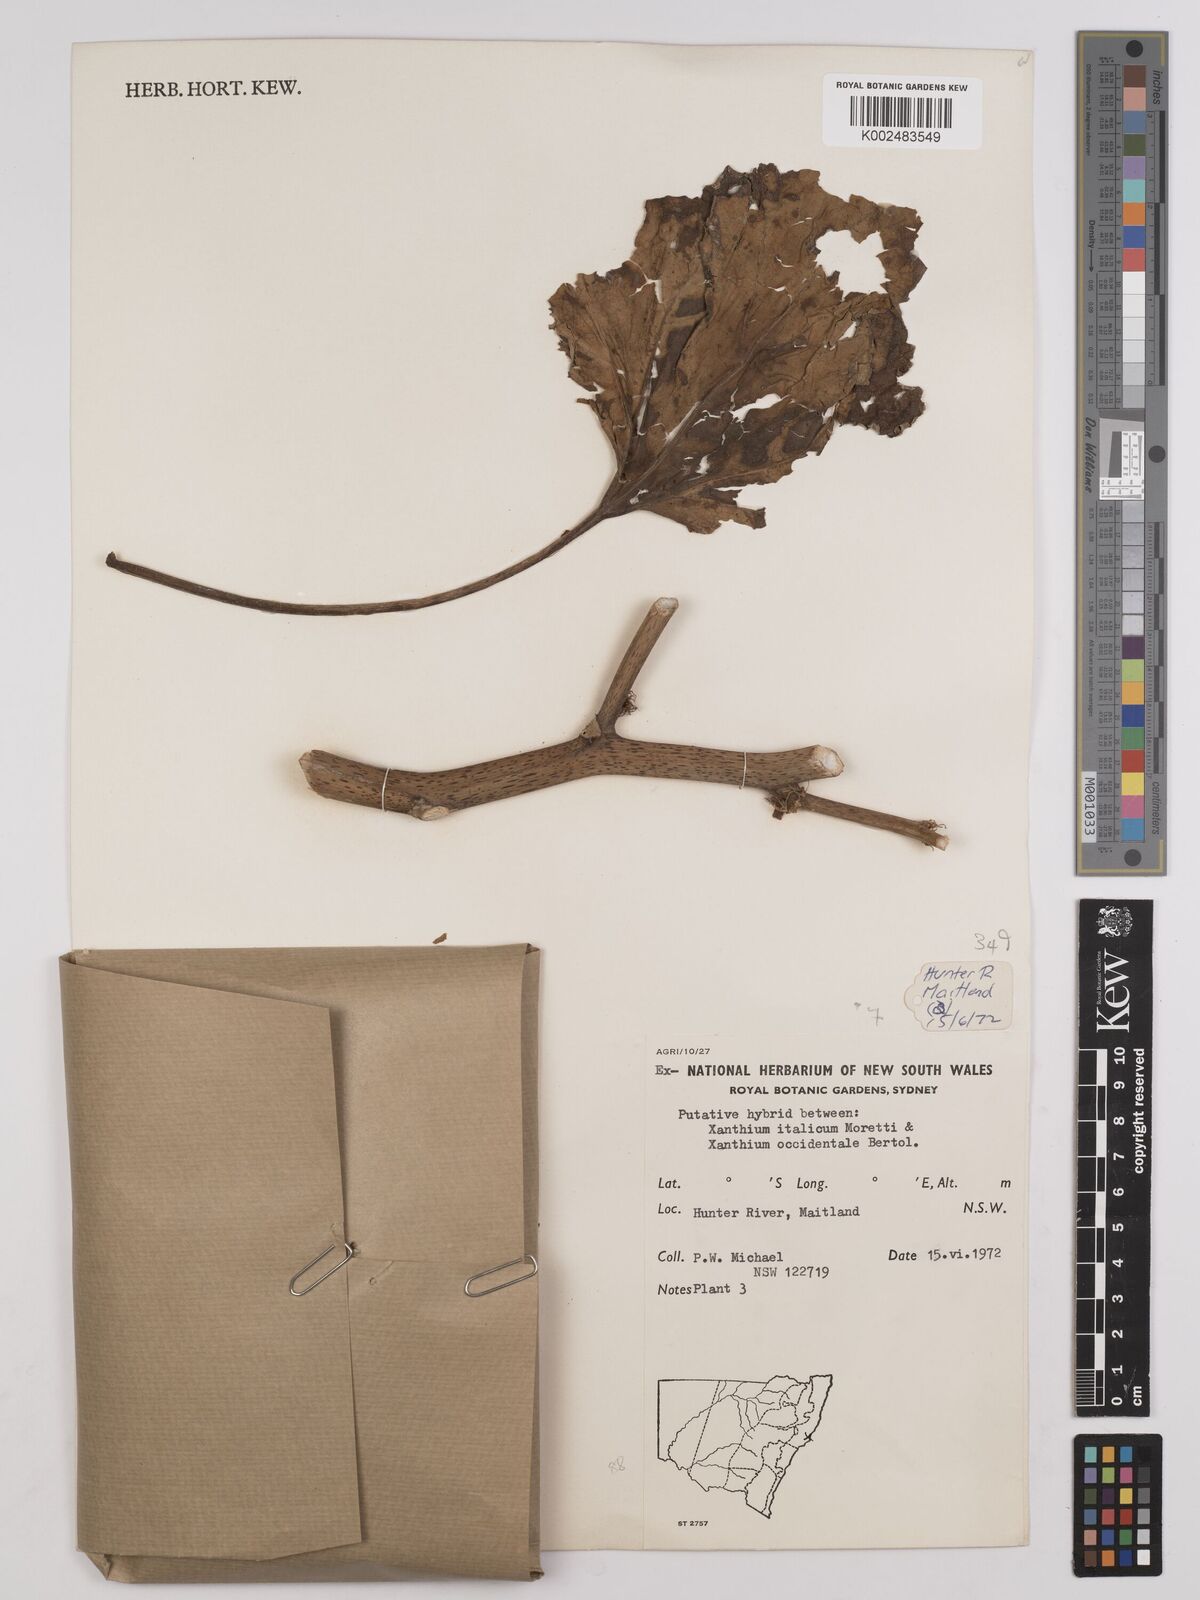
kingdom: Plantae
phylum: Tracheophyta
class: Magnoliopsida
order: Asterales
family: Asteraceae
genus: Xanthium
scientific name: Xanthium orientale
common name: Californian burr
